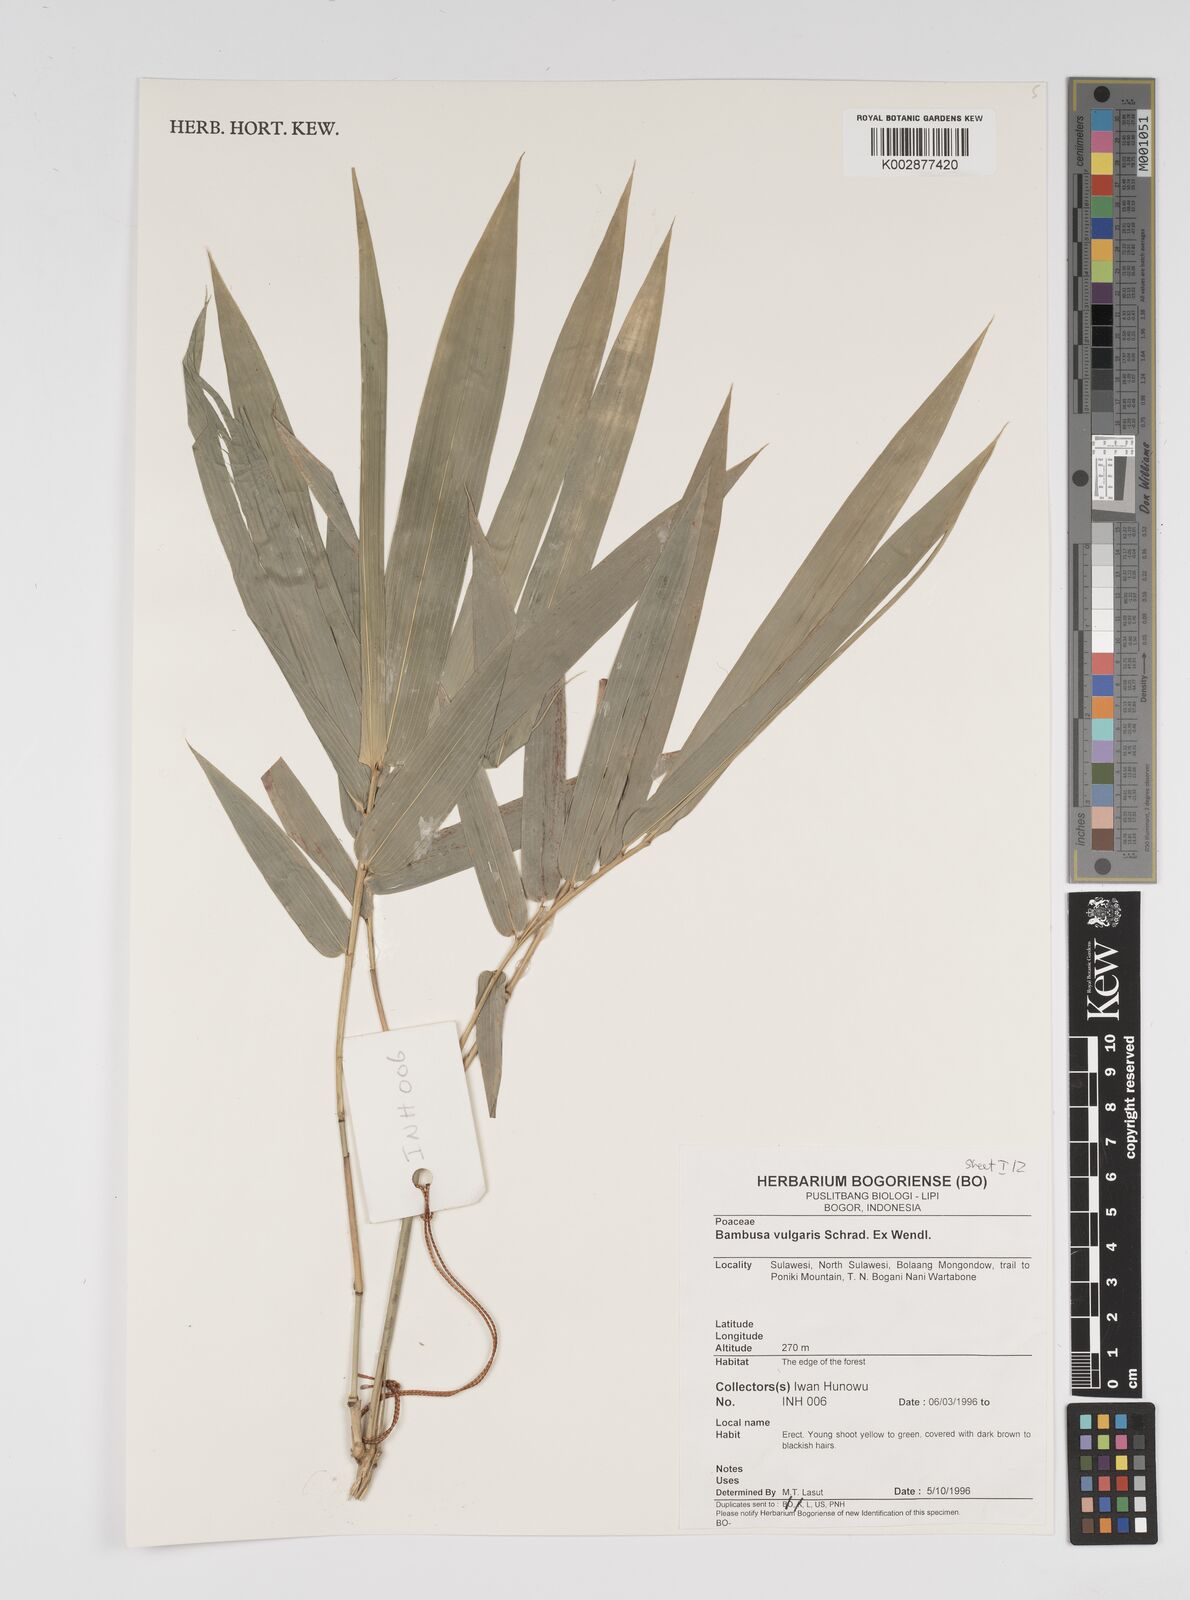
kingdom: Plantae
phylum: Tracheophyta
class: Liliopsida
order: Poales
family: Poaceae
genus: Bambusa
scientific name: Bambusa vulgaris
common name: Common bamboo
